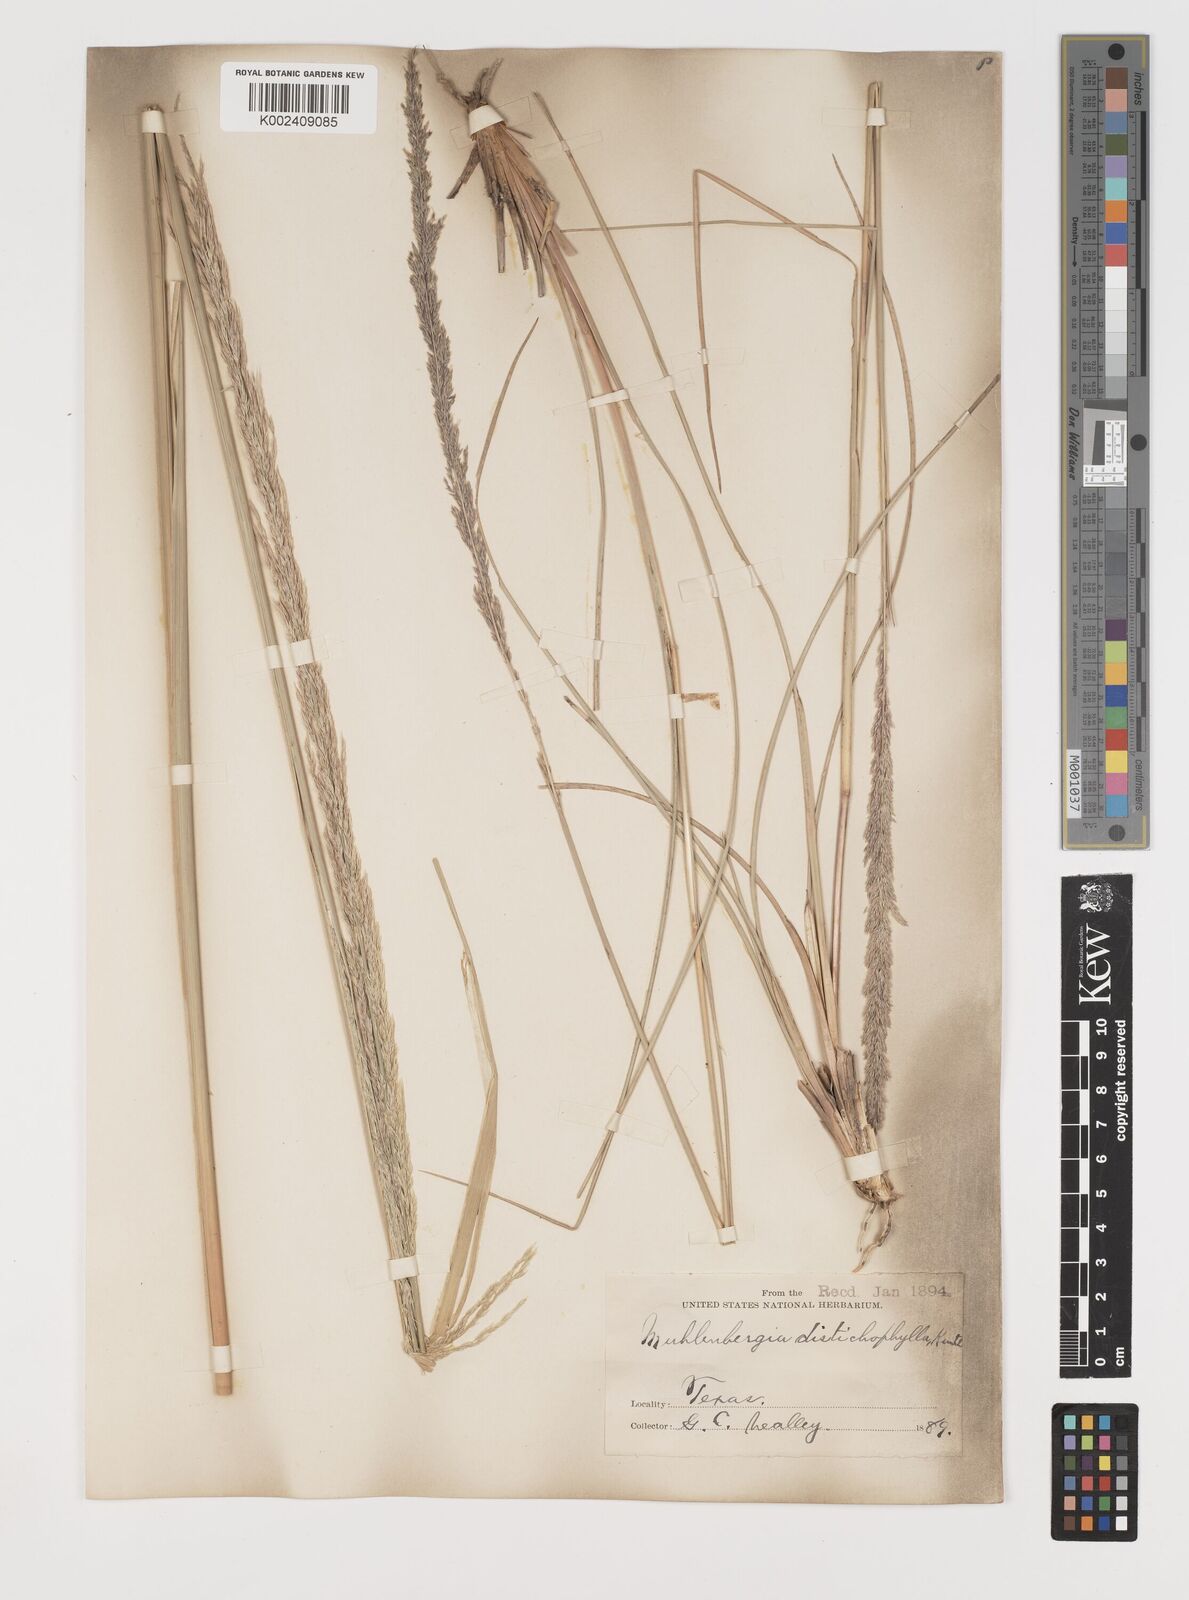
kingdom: Plantae
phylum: Tracheophyta
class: Liliopsida
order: Poales
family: Poaceae
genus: Muhlenbergia
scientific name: Muhlenbergia lindheimeri
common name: Lindheimer's muhly
